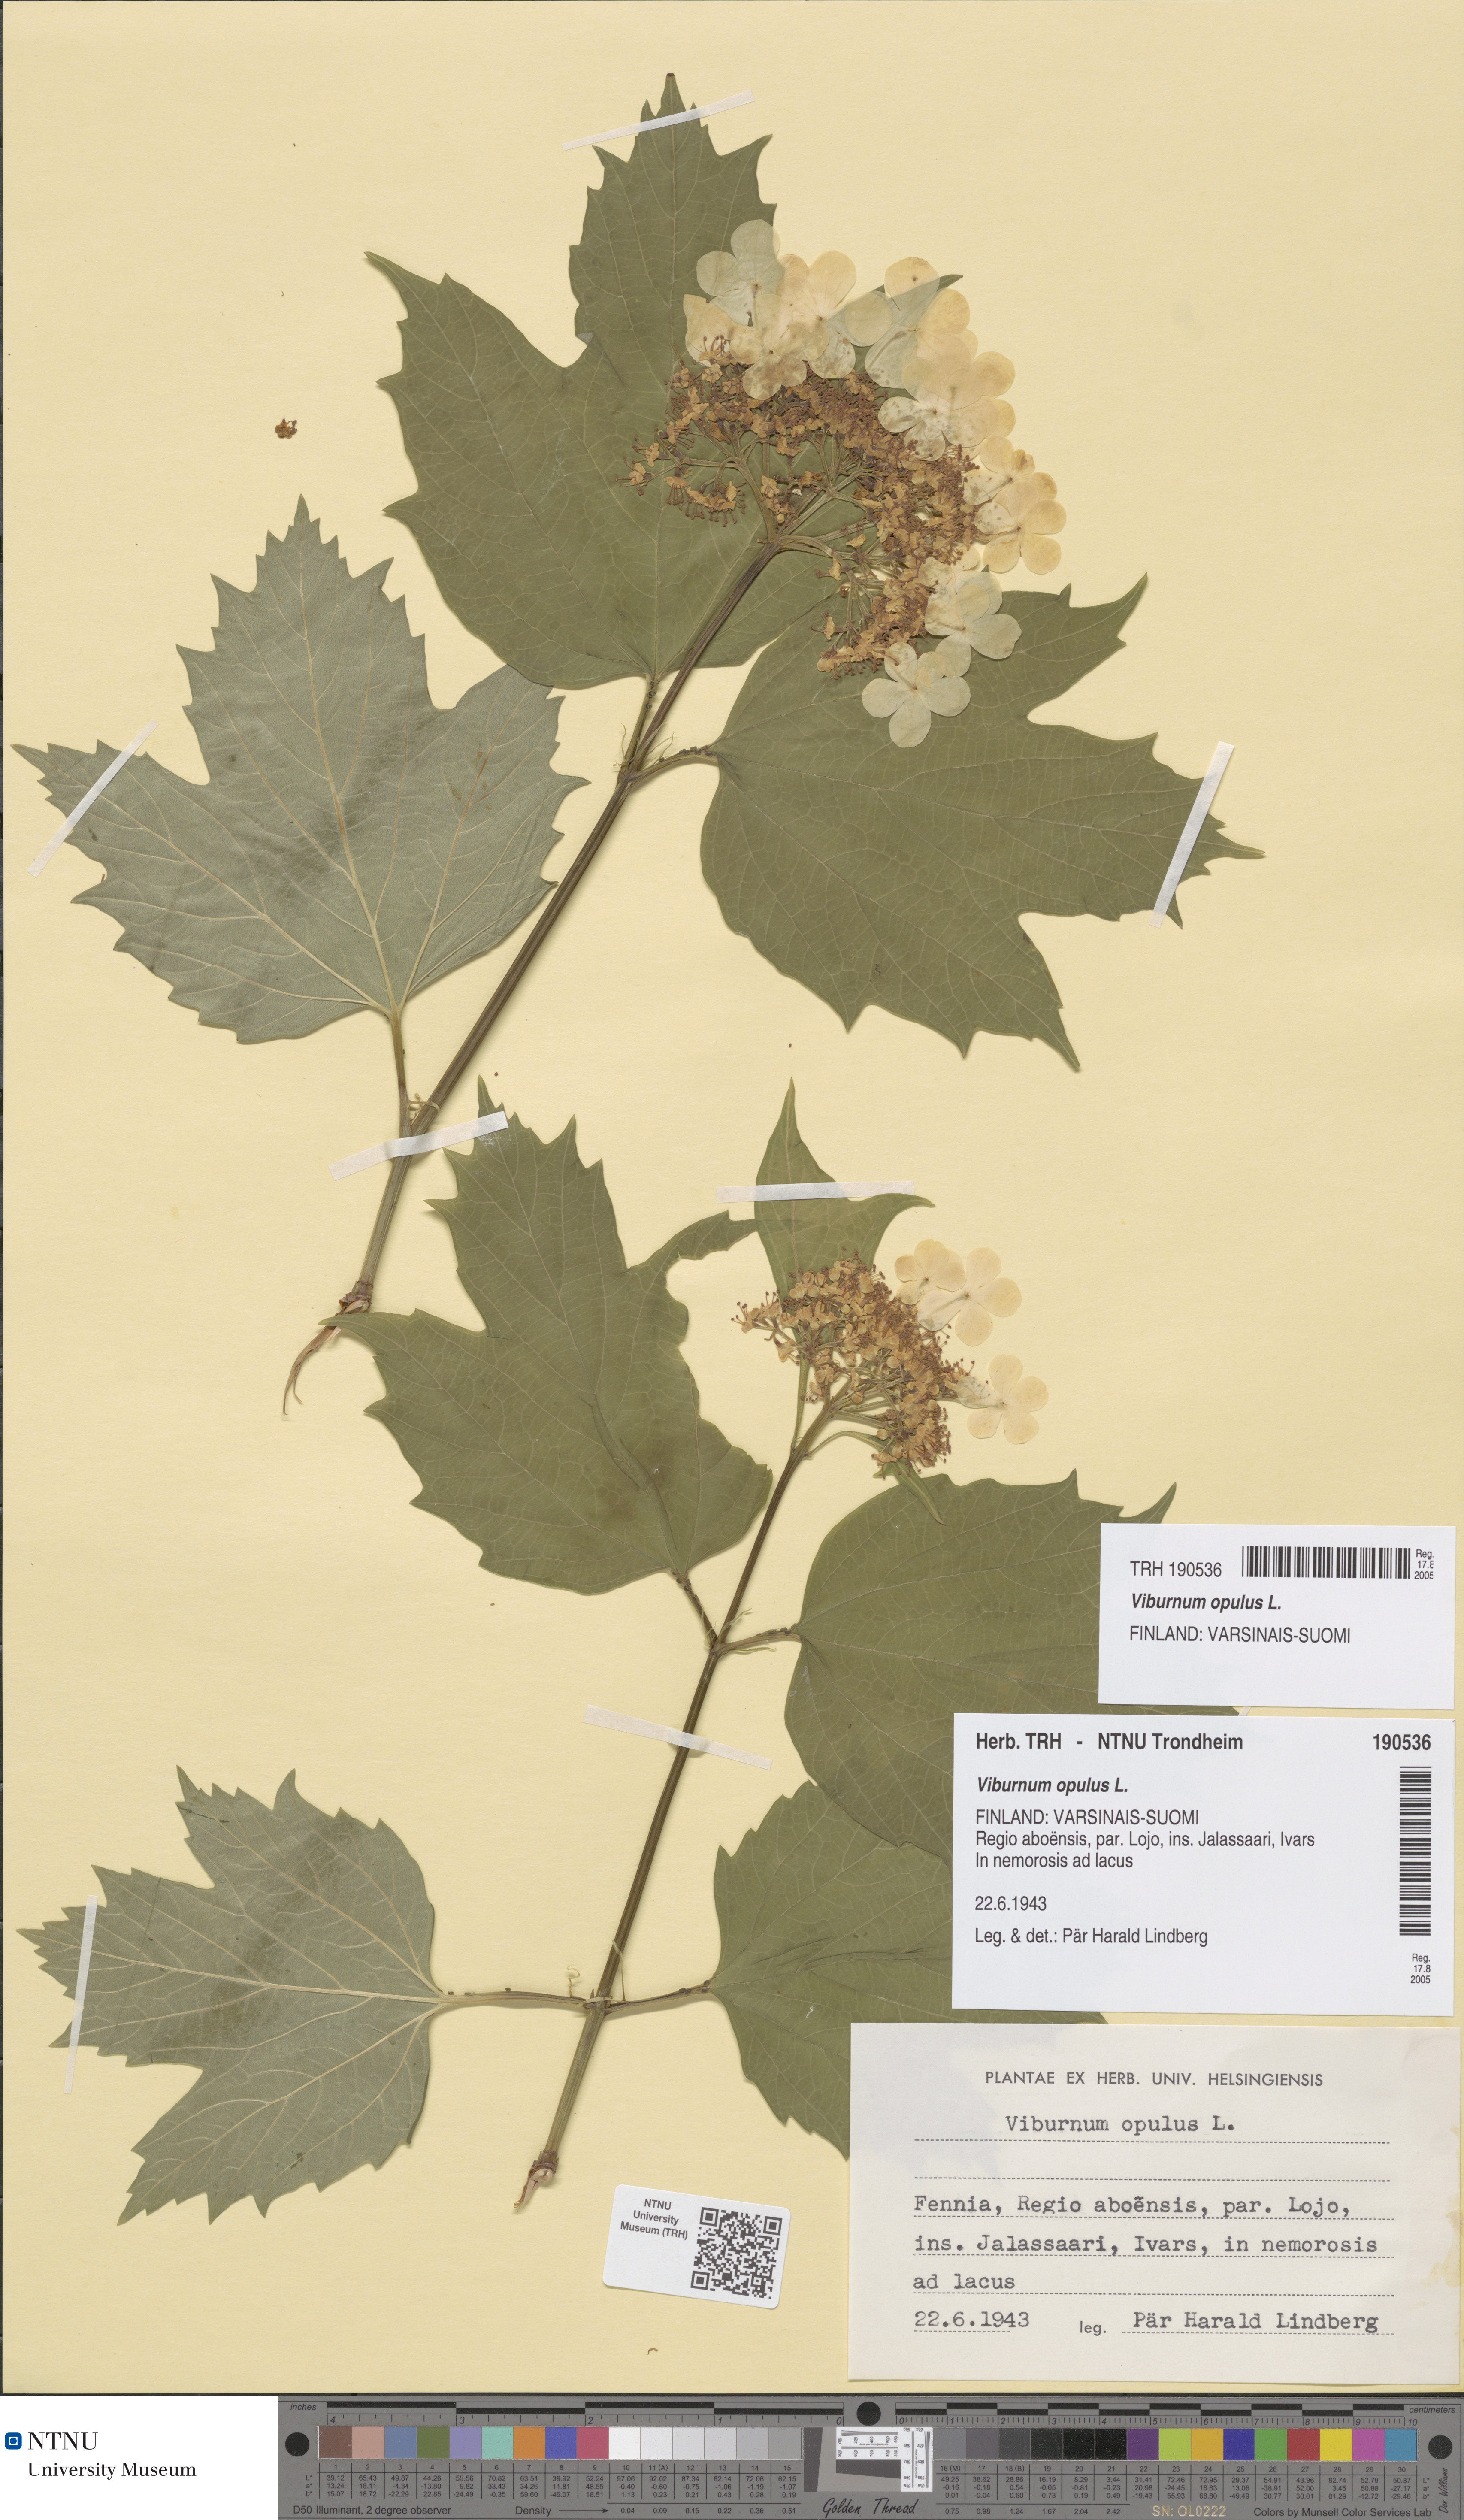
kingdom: Plantae
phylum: Tracheophyta
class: Magnoliopsida
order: Dipsacales
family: Viburnaceae
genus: Viburnum
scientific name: Viburnum opulus
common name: Guelder-rose
